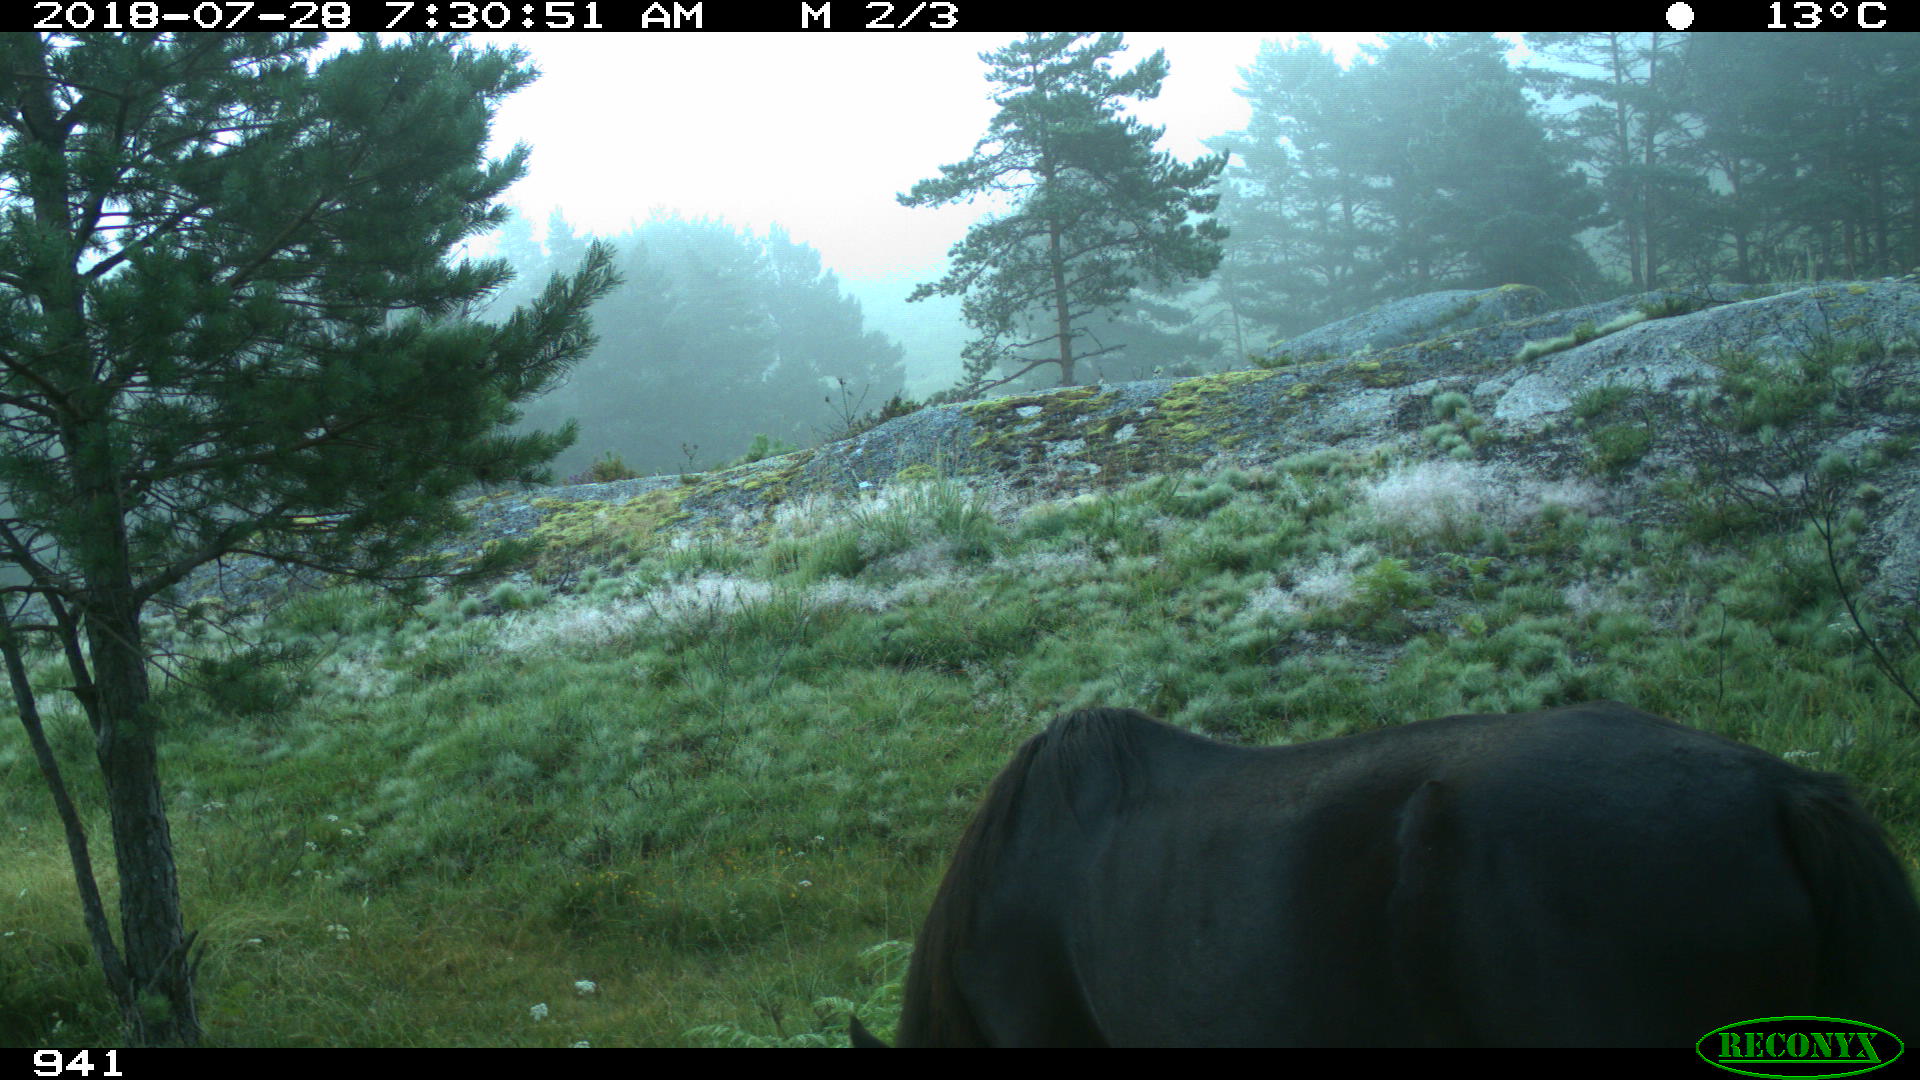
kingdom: Animalia
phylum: Chordata
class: Mammalia
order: Perissodactyla
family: Equidae
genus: Equus
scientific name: Equus caballus
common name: Horse
